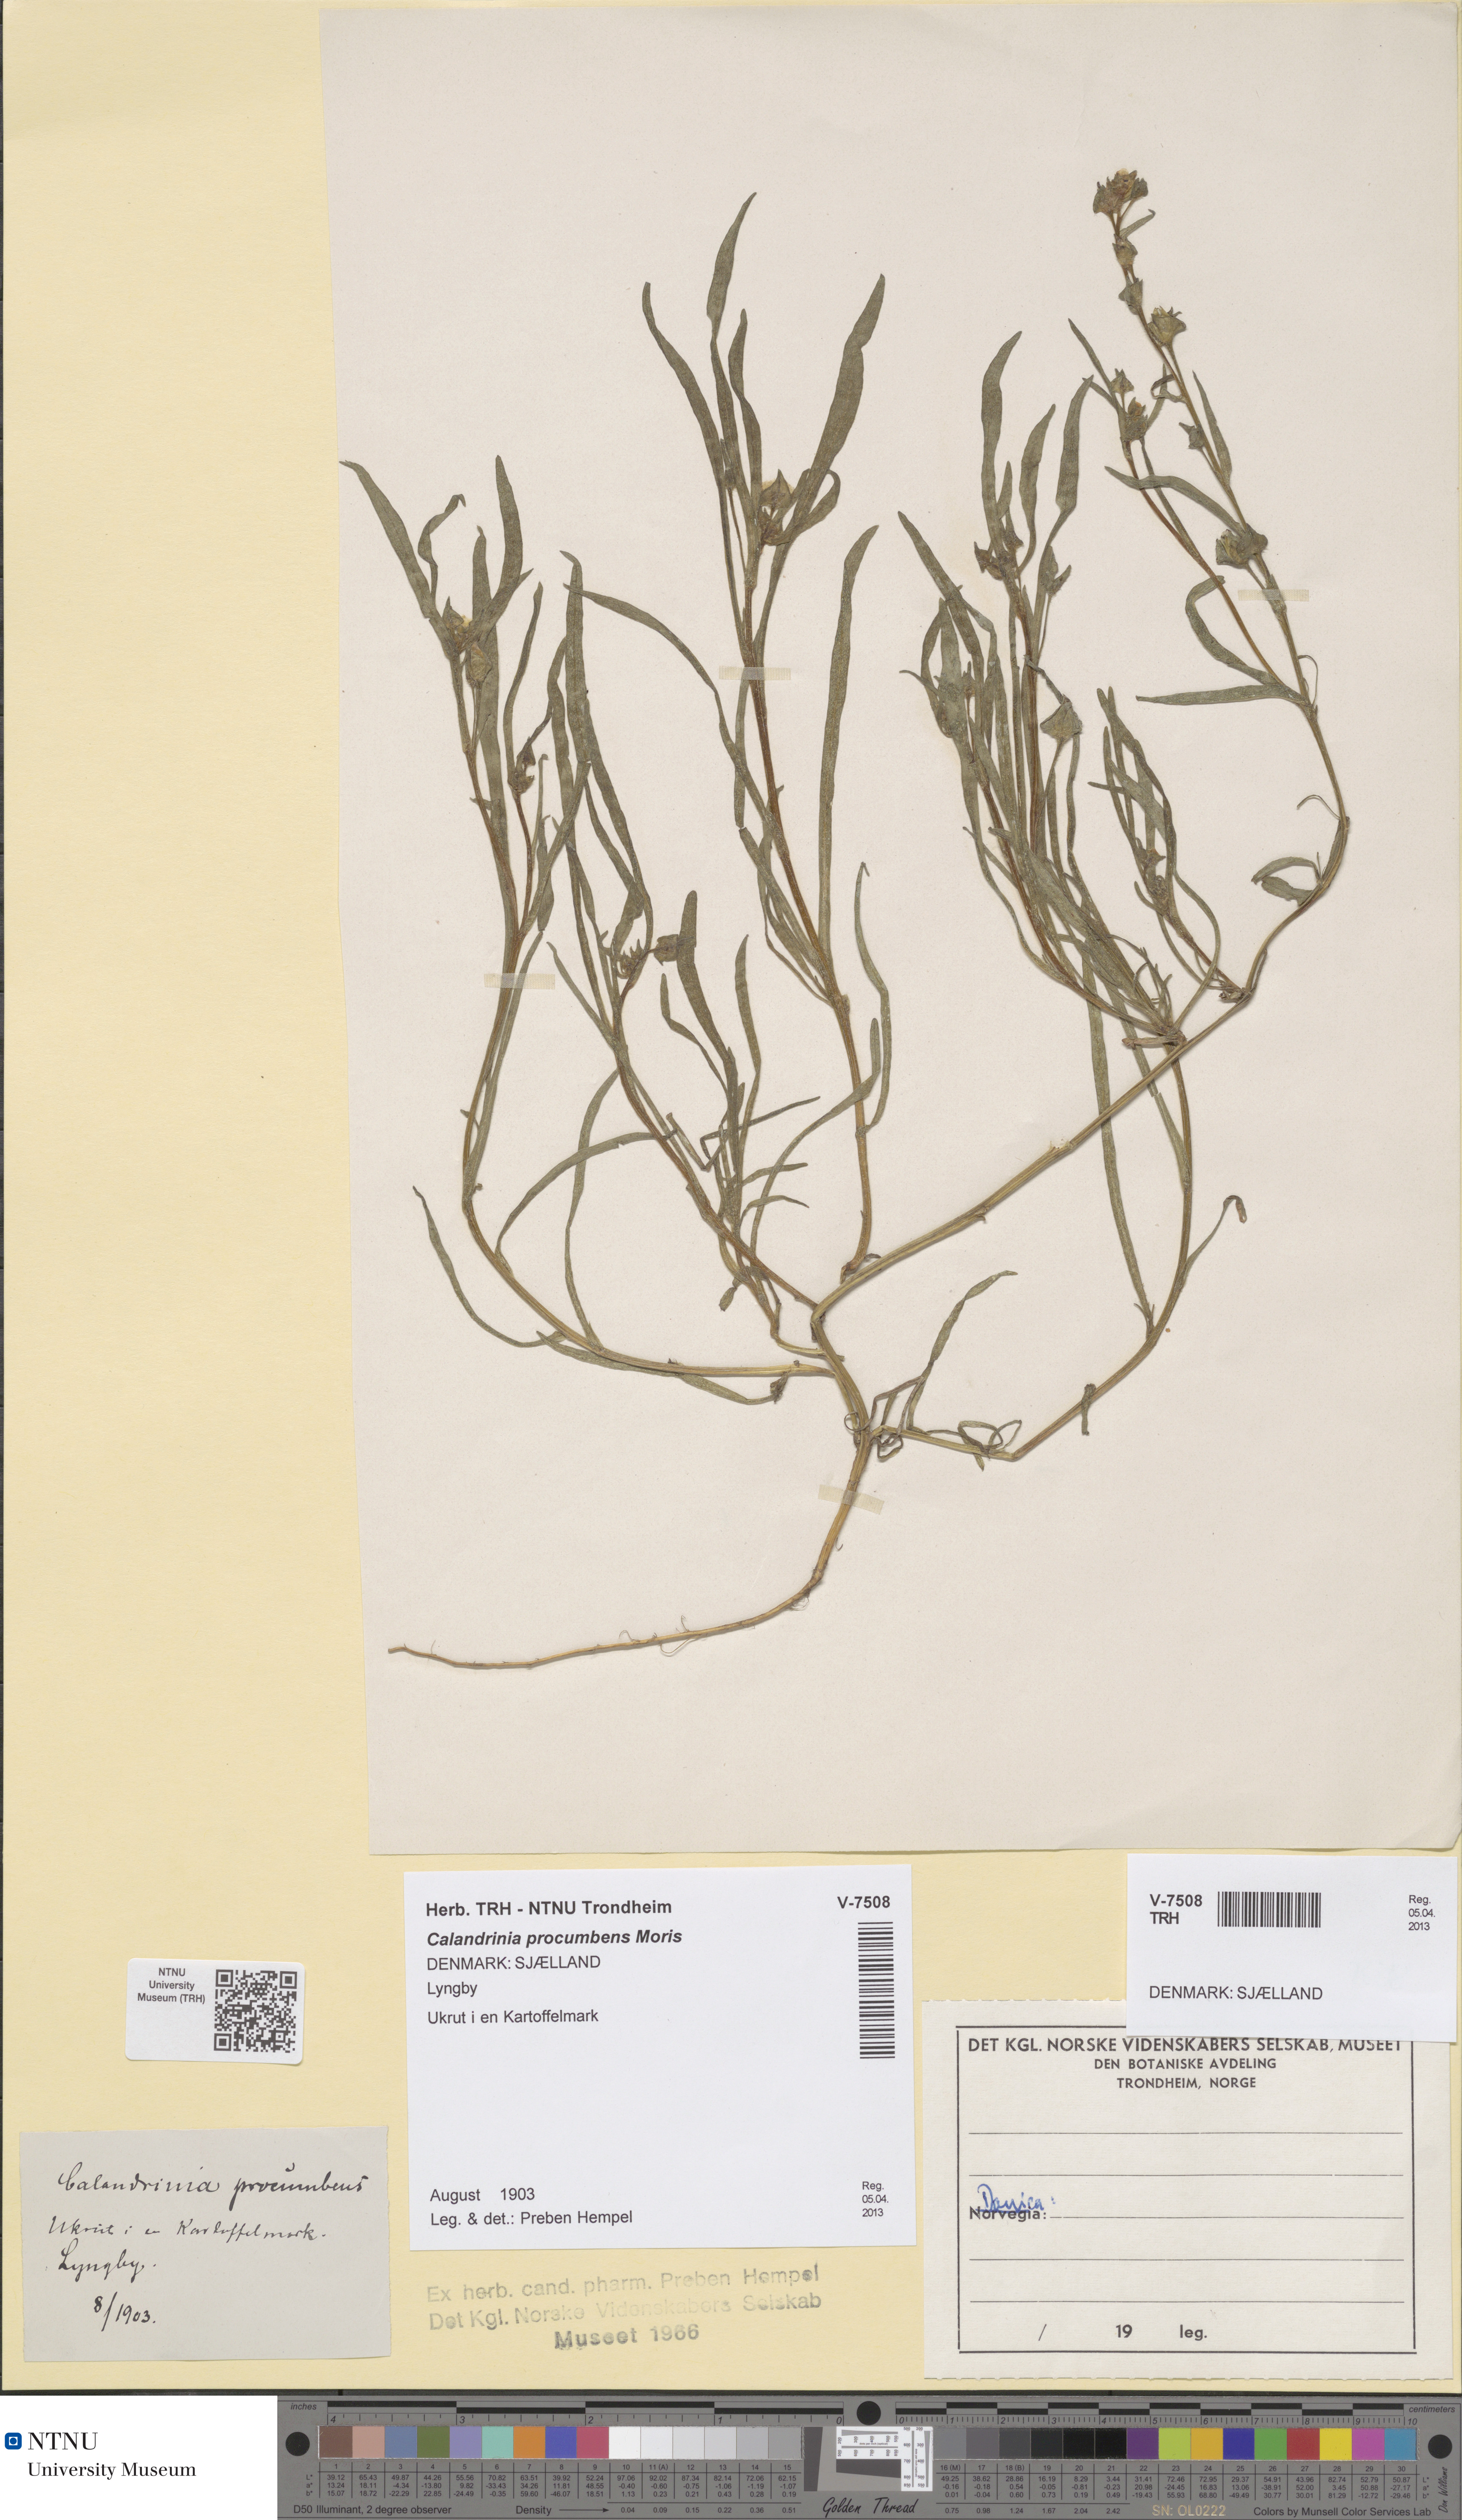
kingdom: Plantae
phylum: Tracheophyta
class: Magnoliopsida
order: Caryophyllales
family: Montiaceae
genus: Calandrinia
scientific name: Calandrinia pilosiuscula
